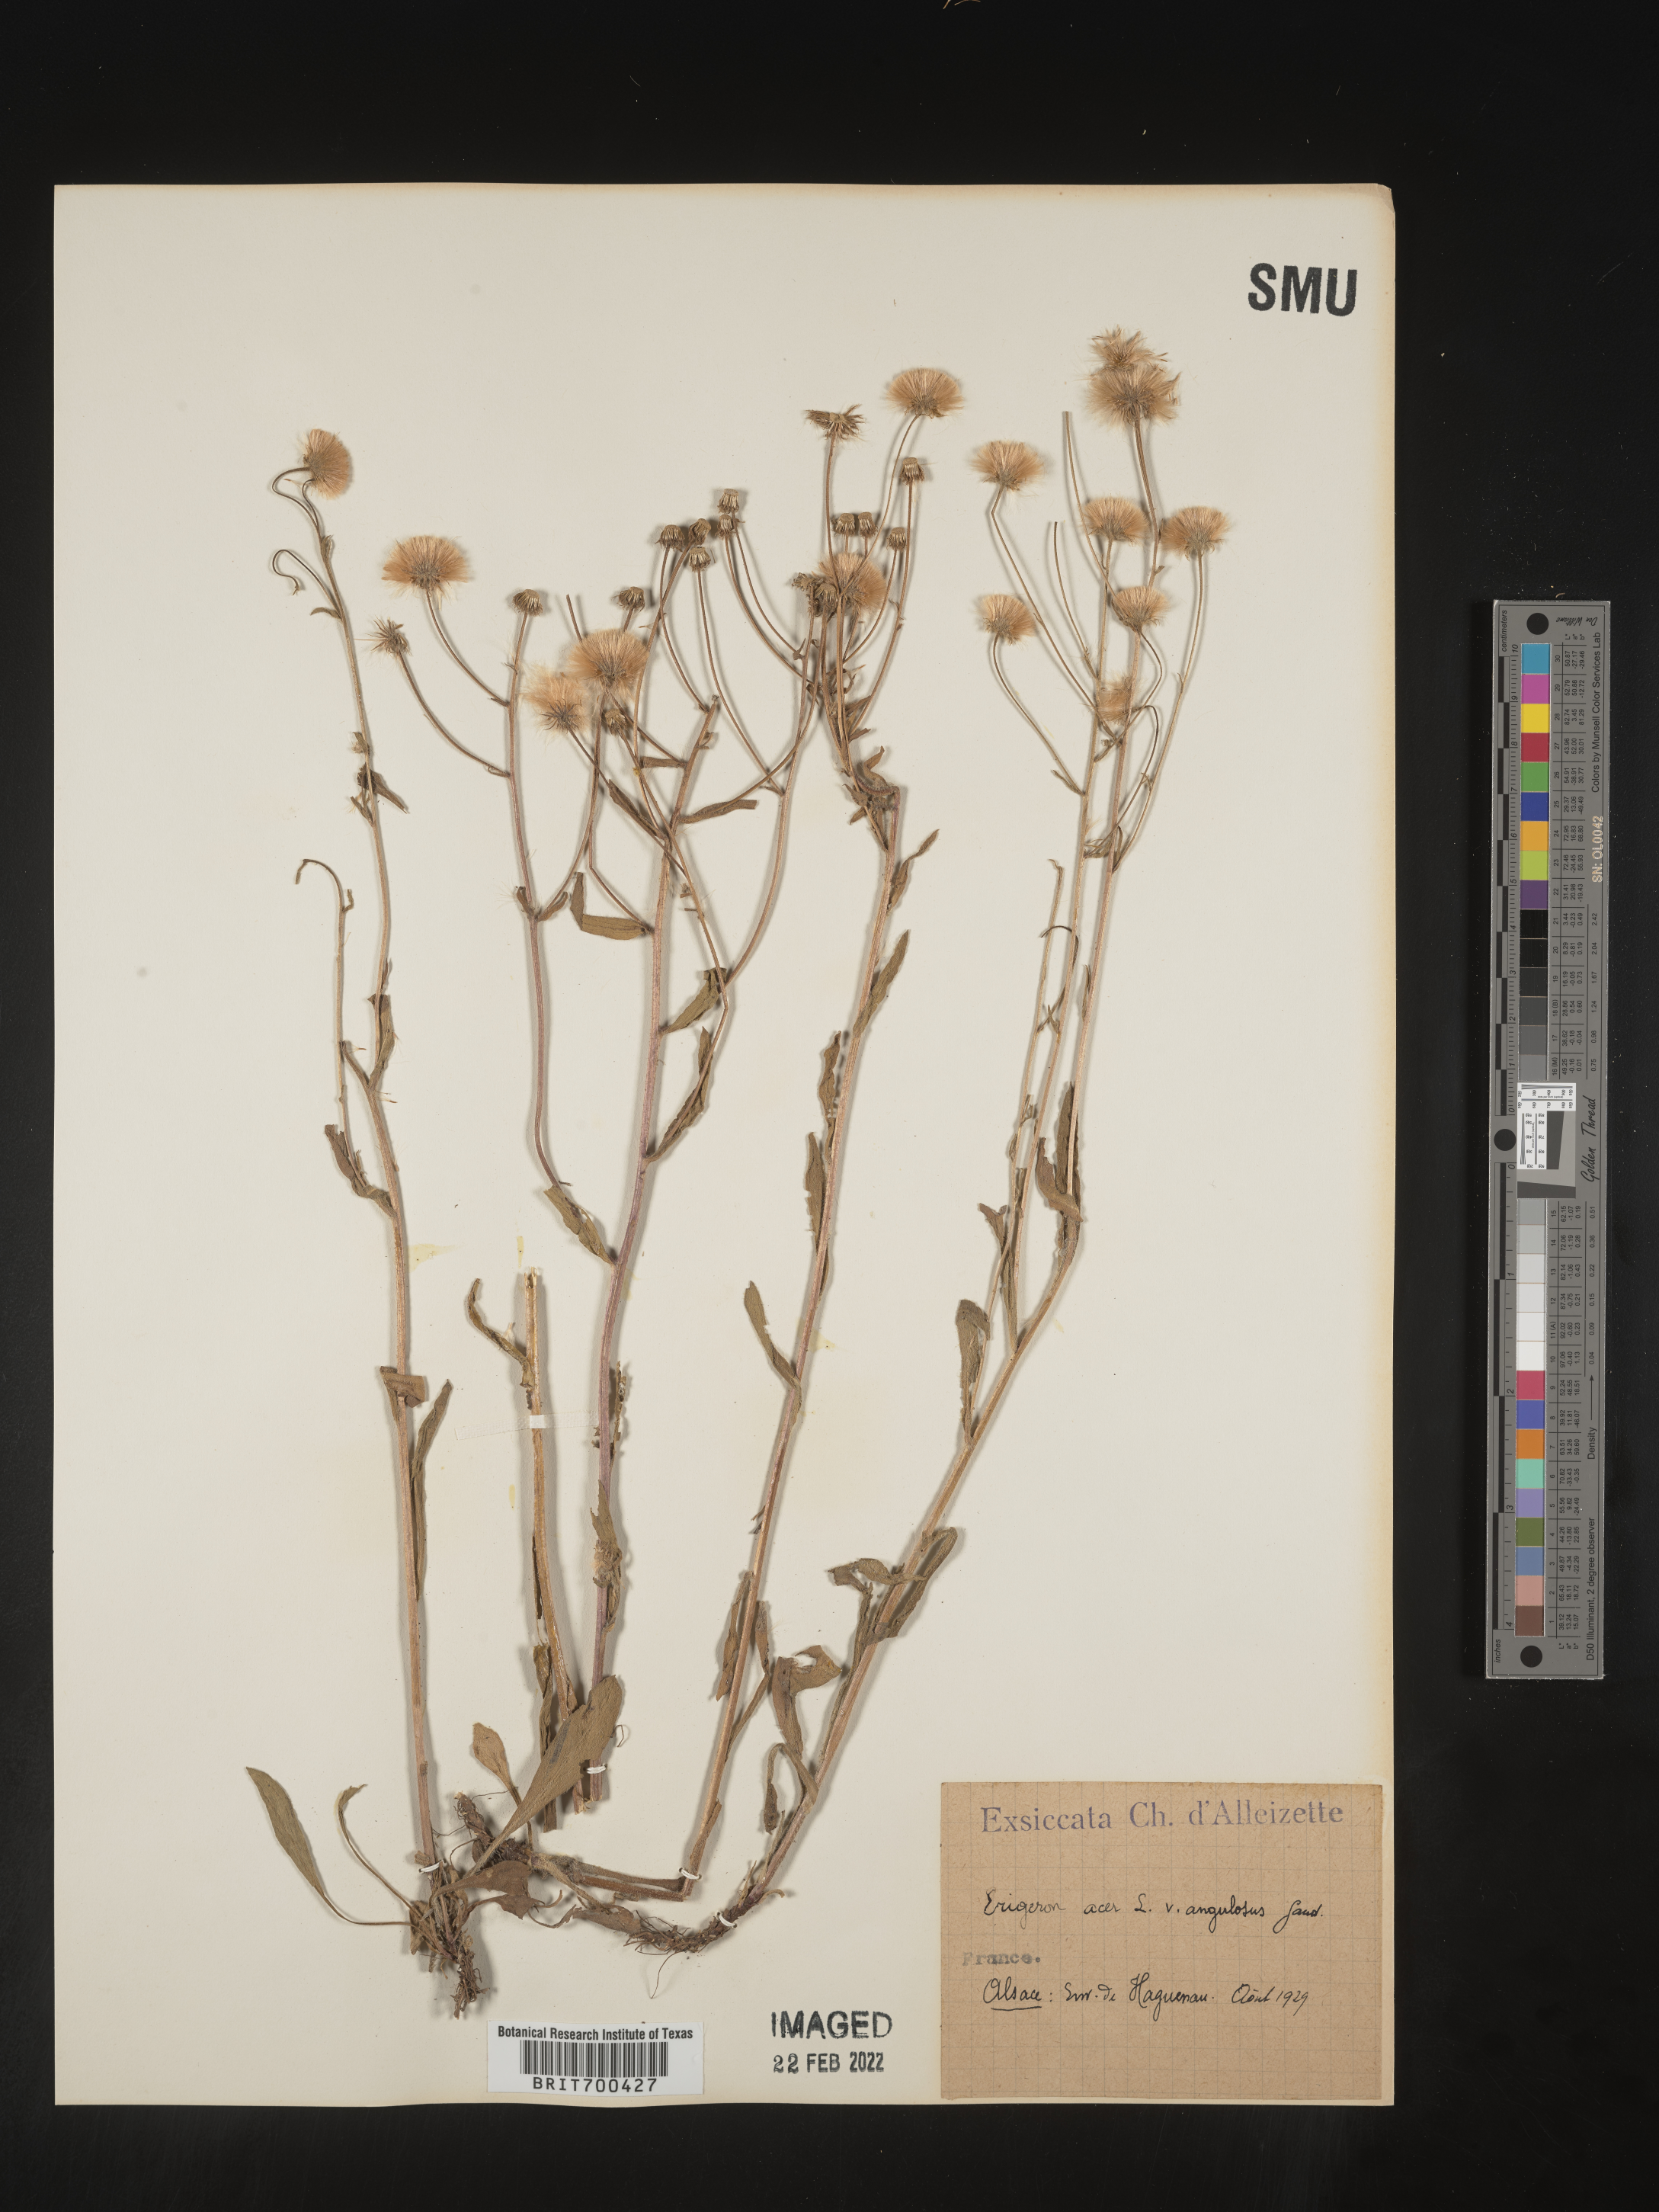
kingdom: Plantae
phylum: Tracheophyta
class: Magnoliopsida
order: Asterales
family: Asteraceae
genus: Erigeron
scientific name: Erigeron
